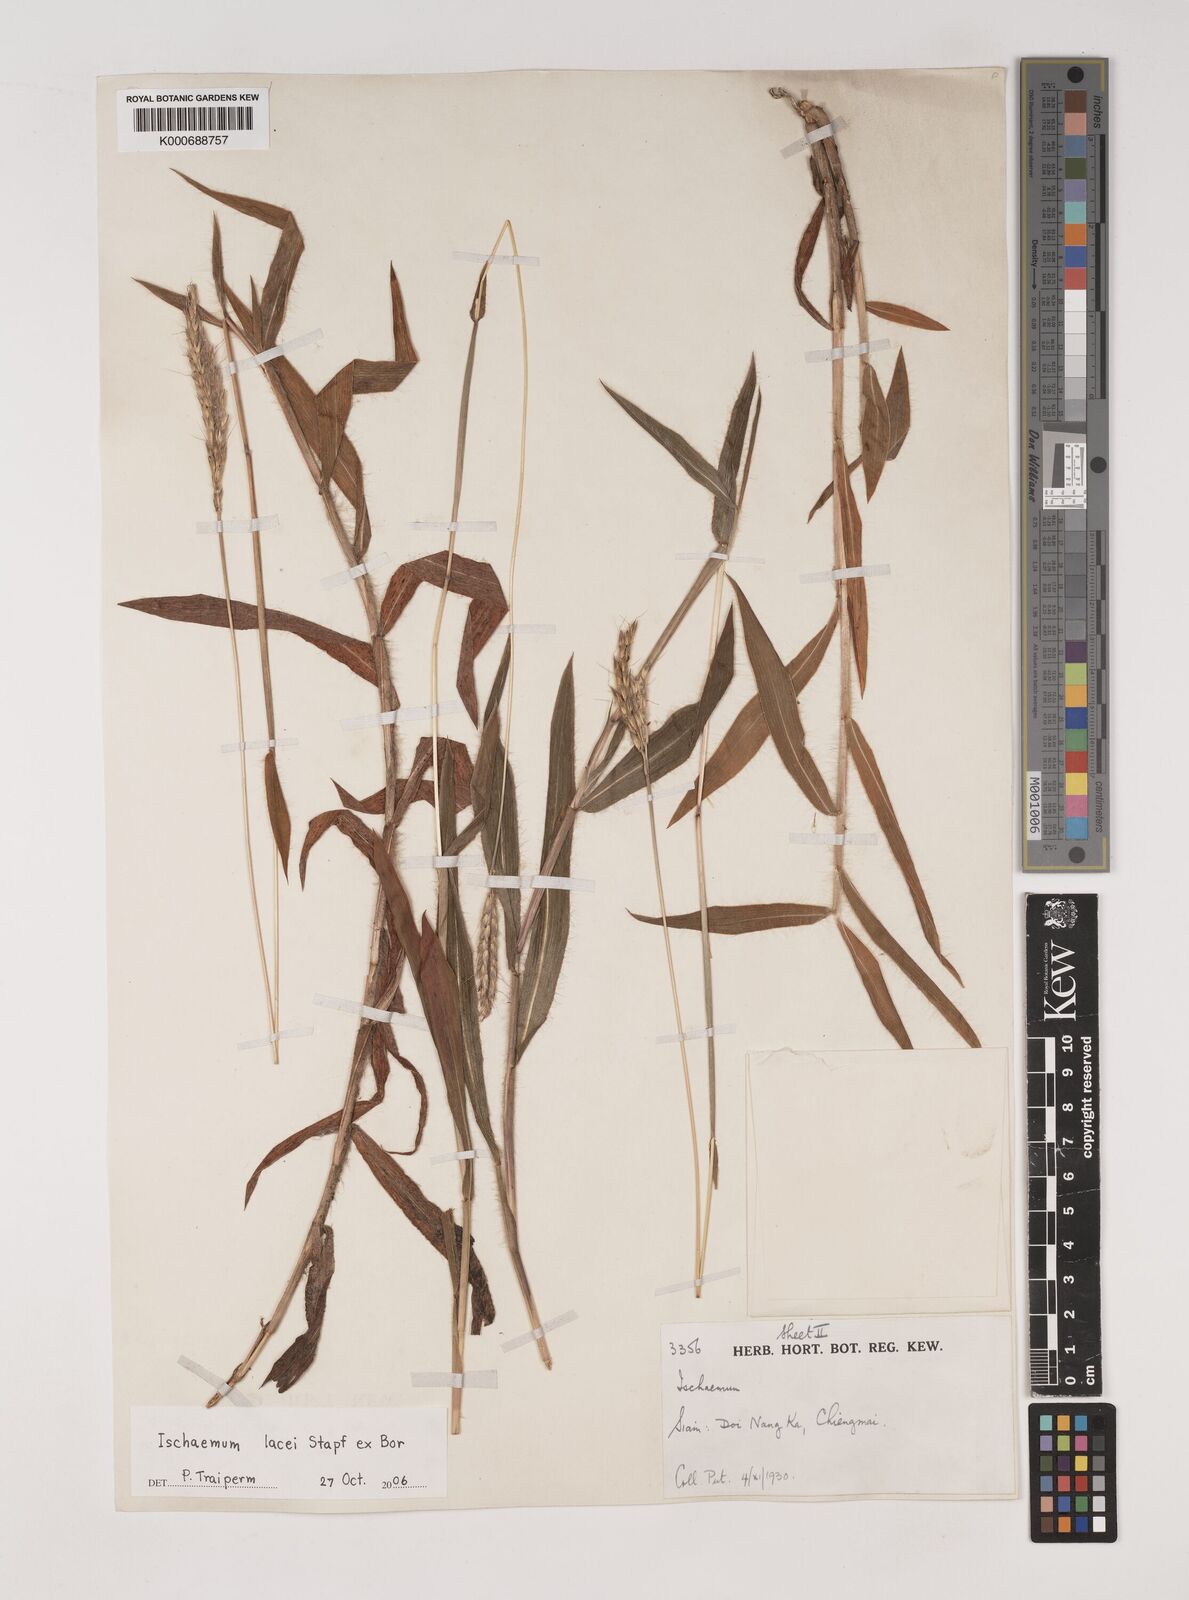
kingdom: Plantae
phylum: Tracheophyta
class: Liliopsida
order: Poales
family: Poaceae
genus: Ischaemum
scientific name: Ischaemum polystachyum
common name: Paddle grass
